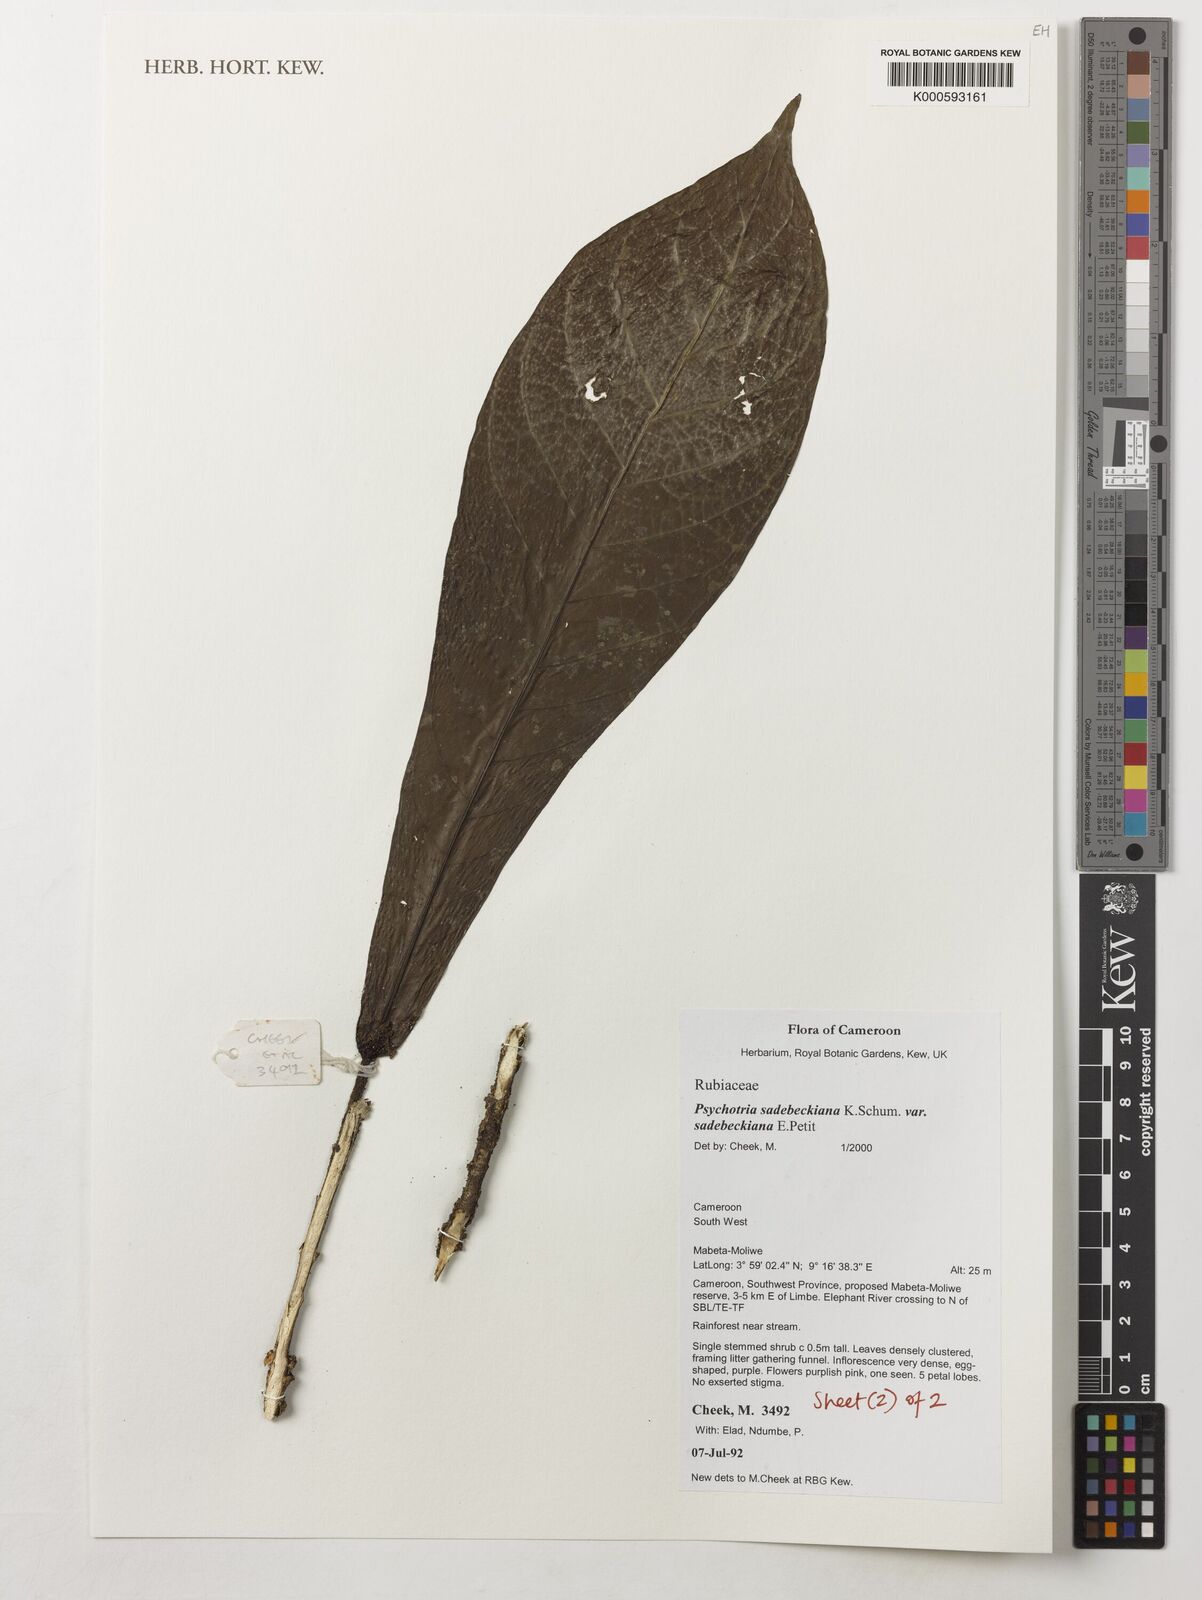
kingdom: Plantae
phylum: Tracheophyta
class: Magnoliopsida
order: Gentianales
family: Rubiaceae
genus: Psychotria
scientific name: Psychotria sadebeckiana
